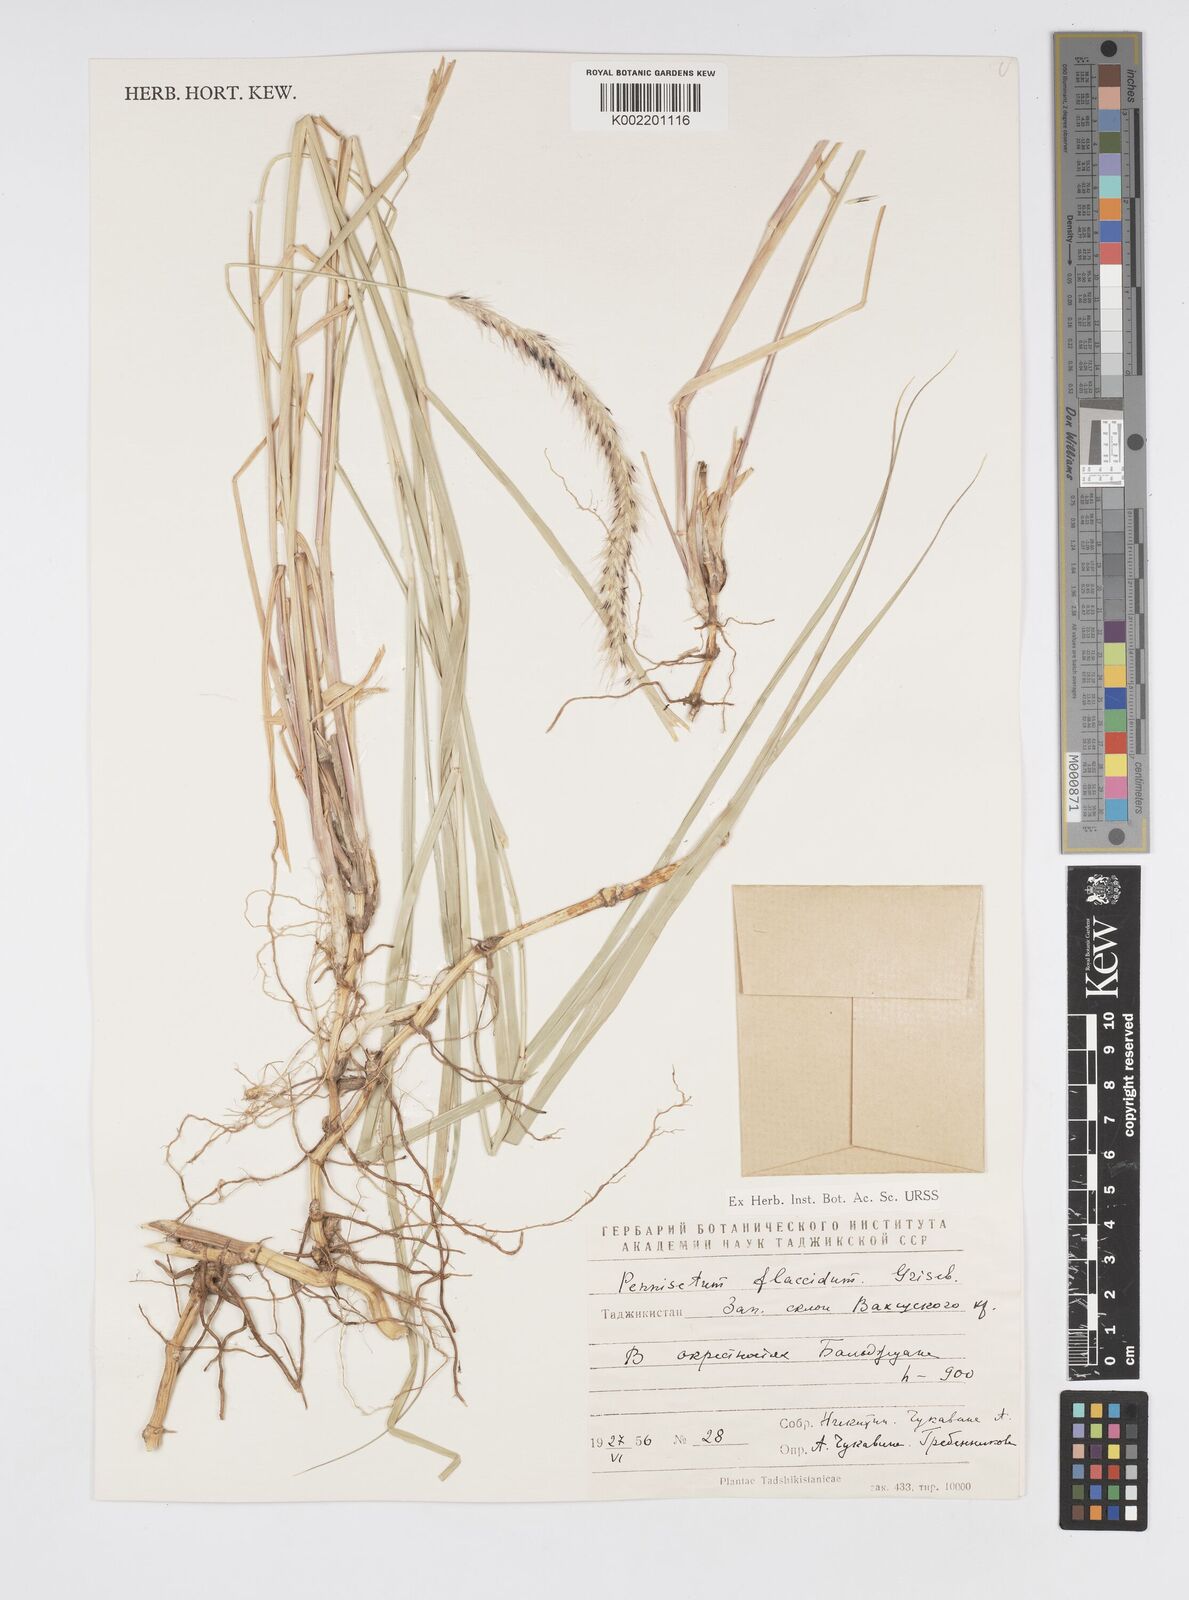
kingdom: Plantae
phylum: Tracheophyta
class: Liliopsida
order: Poales
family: Poaceae
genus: Cenchrus
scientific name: Cenchrus flaccidus
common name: Flaccid grass
